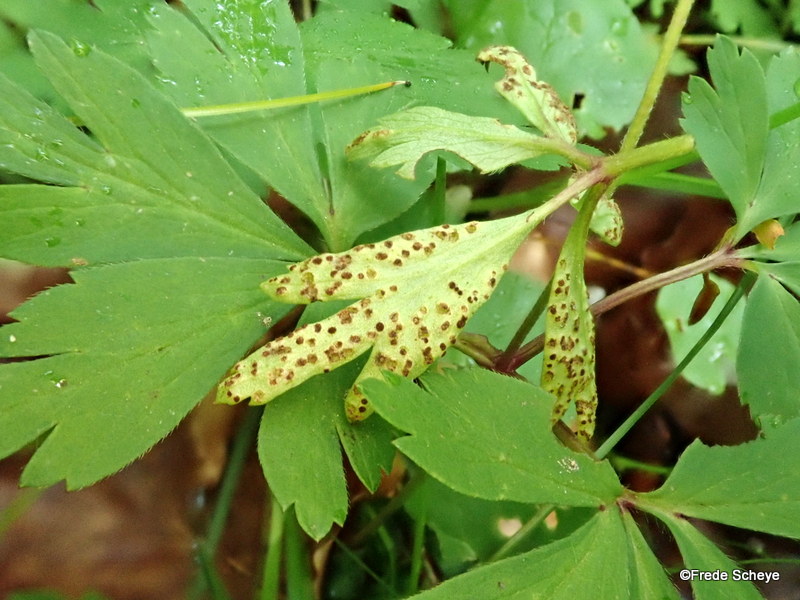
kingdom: Fungi
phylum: Basidiomycota
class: Pucciniomycetes
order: Pucciniales
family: Tranzscheliaceae
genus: Tranzschelia
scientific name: Tranzschelia anemones
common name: anemone-knæksporerust
